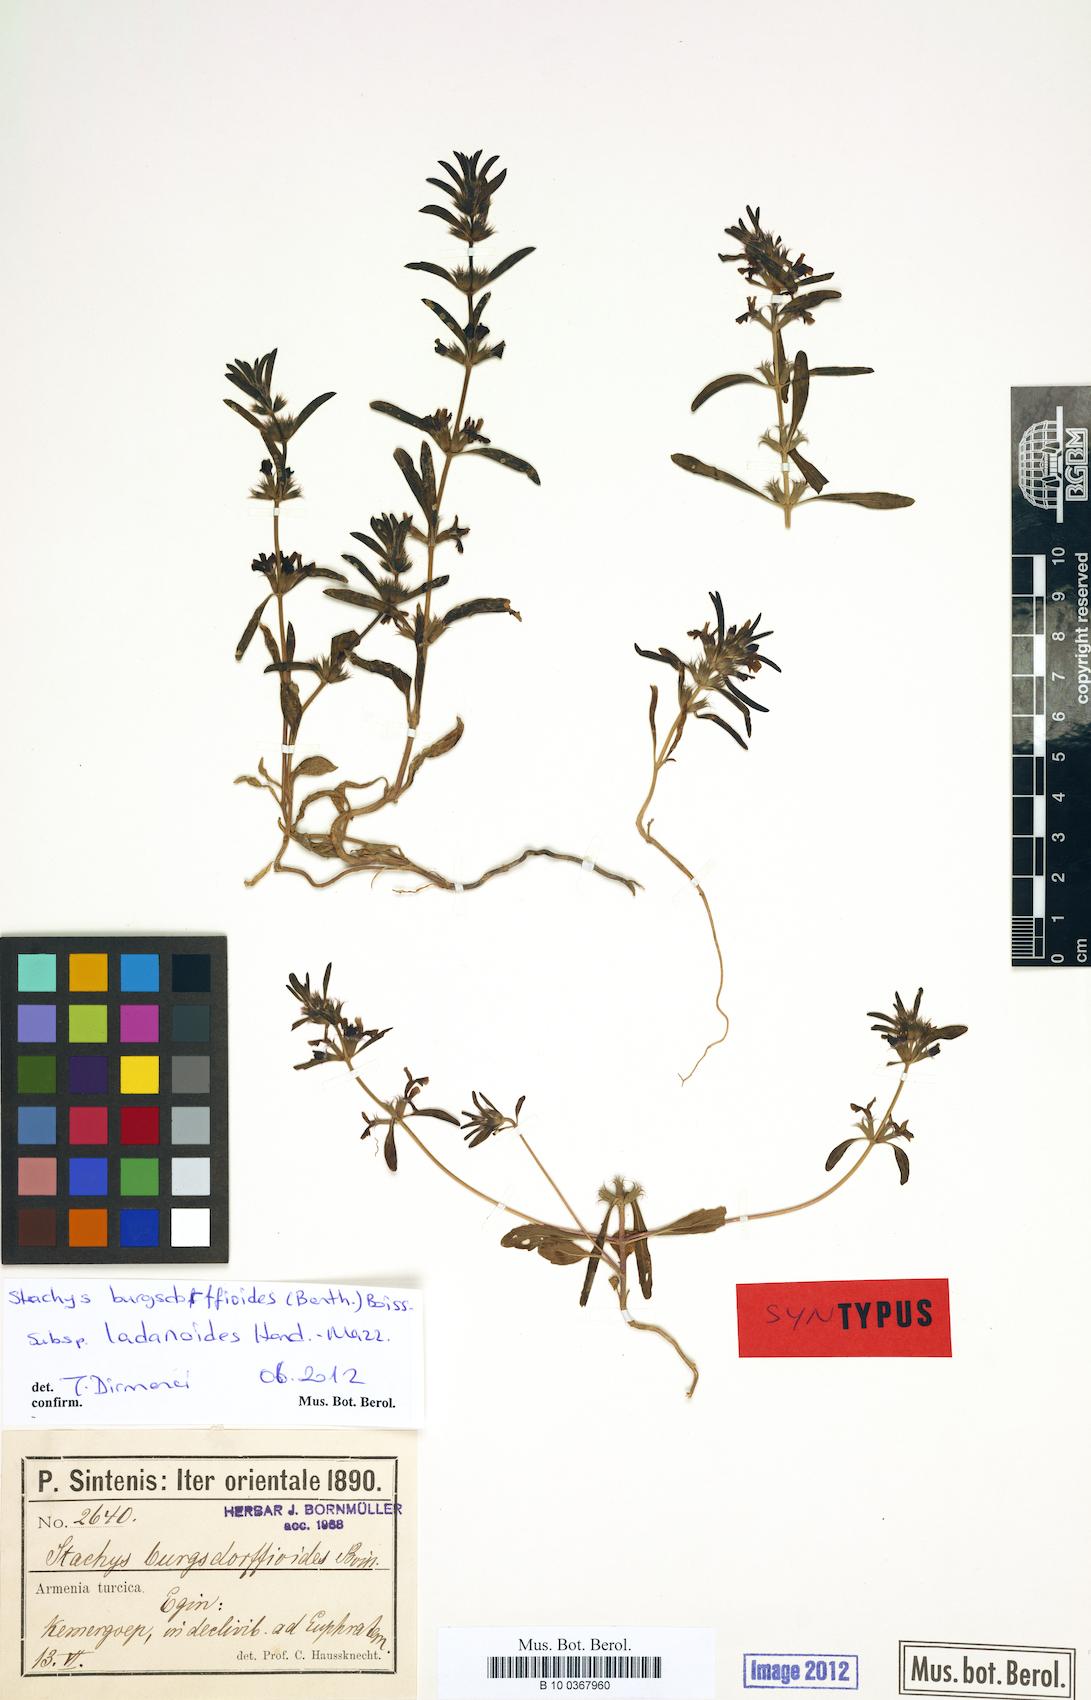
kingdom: Plantae
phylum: Tracheophyta
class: Magnoliopsida
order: Lamiales
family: Lamiaceae
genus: Stachys
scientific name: Stachys burgsdorffioides
